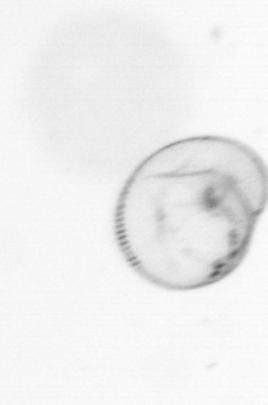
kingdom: Chromista
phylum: Myzozoa
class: Dinophyceae
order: Noctilucales
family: Noctilucaceae
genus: Noctiluca
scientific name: Noctiluca scintillans
